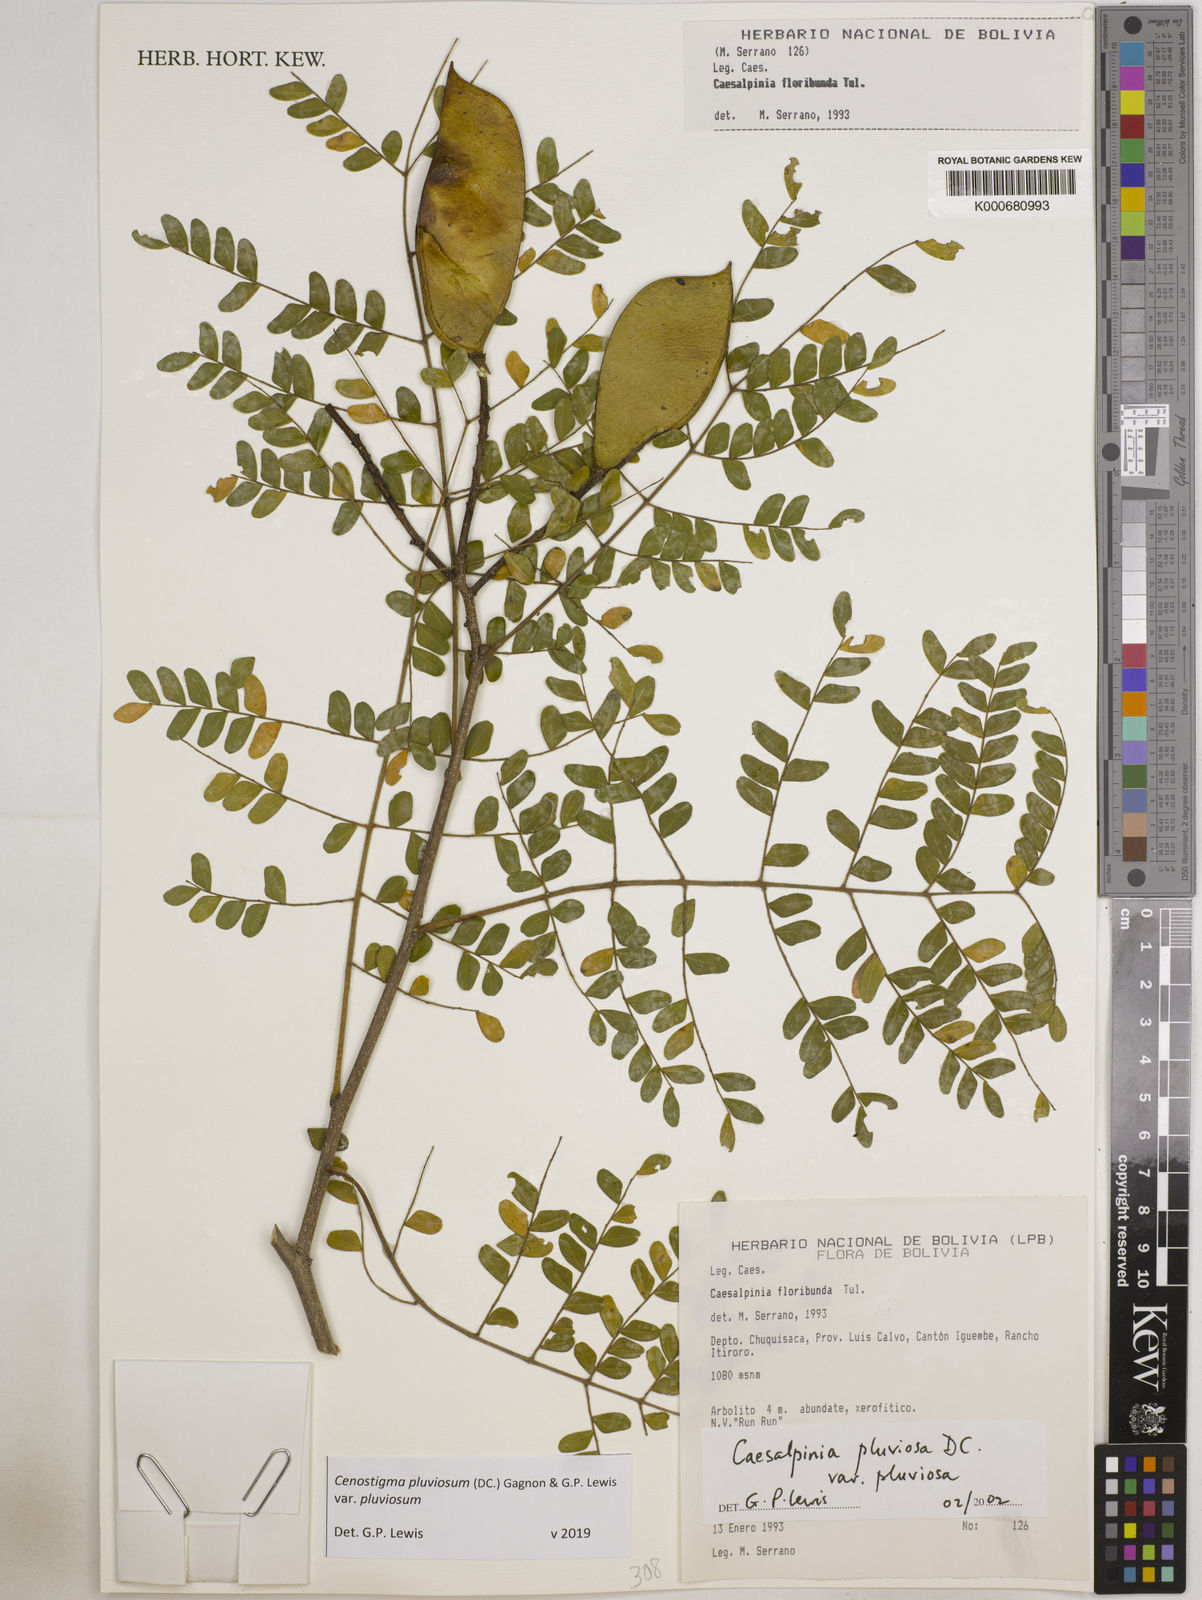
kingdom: Plantae
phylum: Tracheophyta
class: Magnoliopsida
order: Fabales
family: Fabaceae
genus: Cenostigma
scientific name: Cenostigma pluviosum
